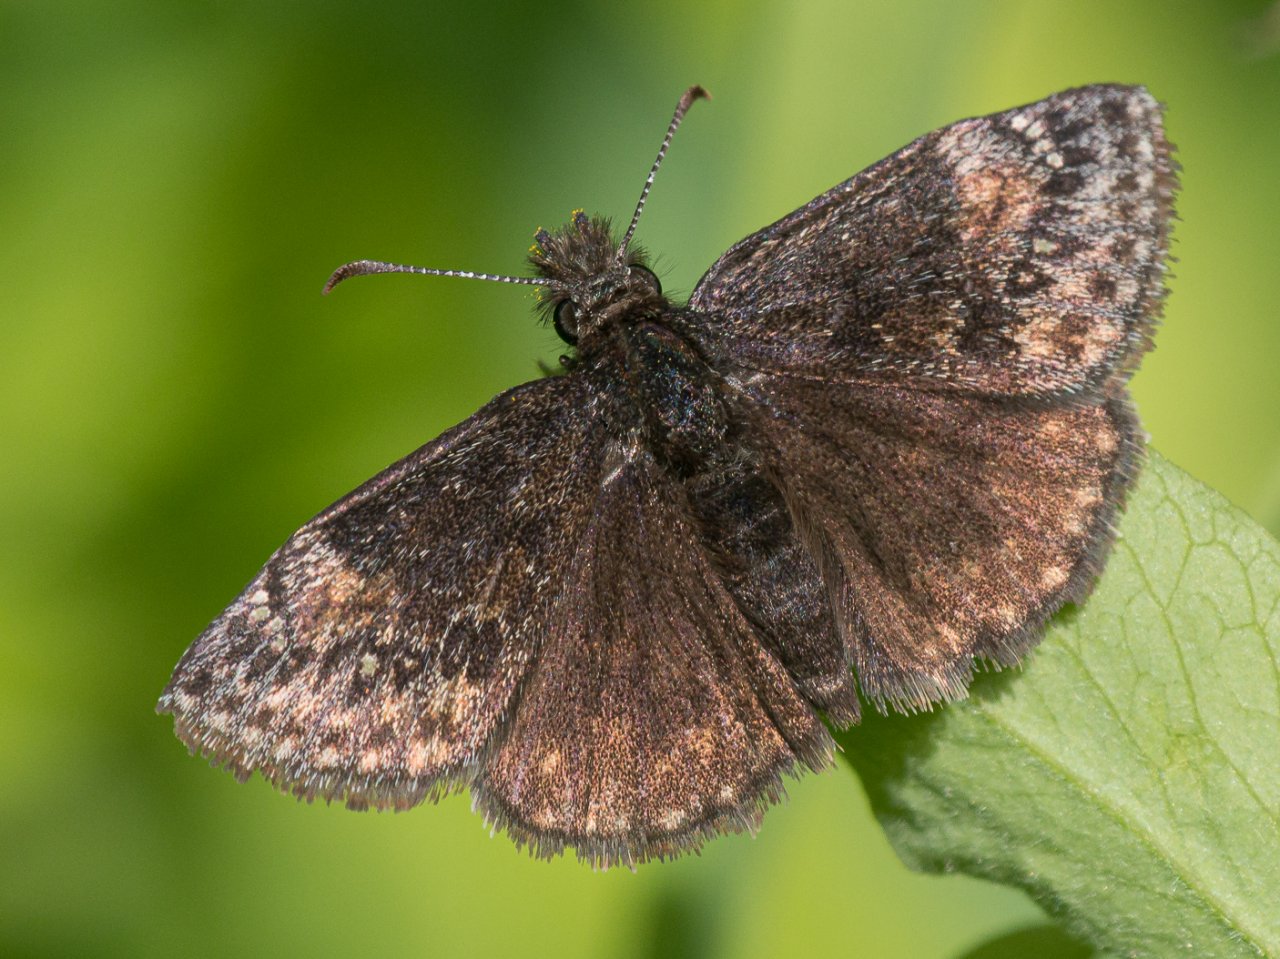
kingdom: Animalia
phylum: Arthropoda
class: Insecta
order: Lepidoptera
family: Hesperiidae
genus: Gesta
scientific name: Gesta
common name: Persius Duskywing
